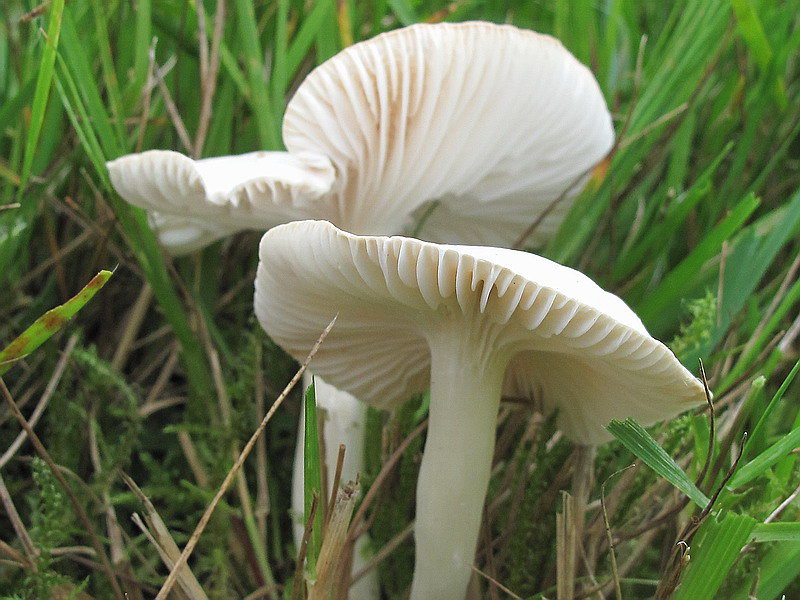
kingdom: Fungi
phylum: Basidiomycota
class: Agaricomycetes
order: Agaricales
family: Hygrophoraceae
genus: Cuphophyllus
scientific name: Cuphophyllus pratensis
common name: bleg vokshat
